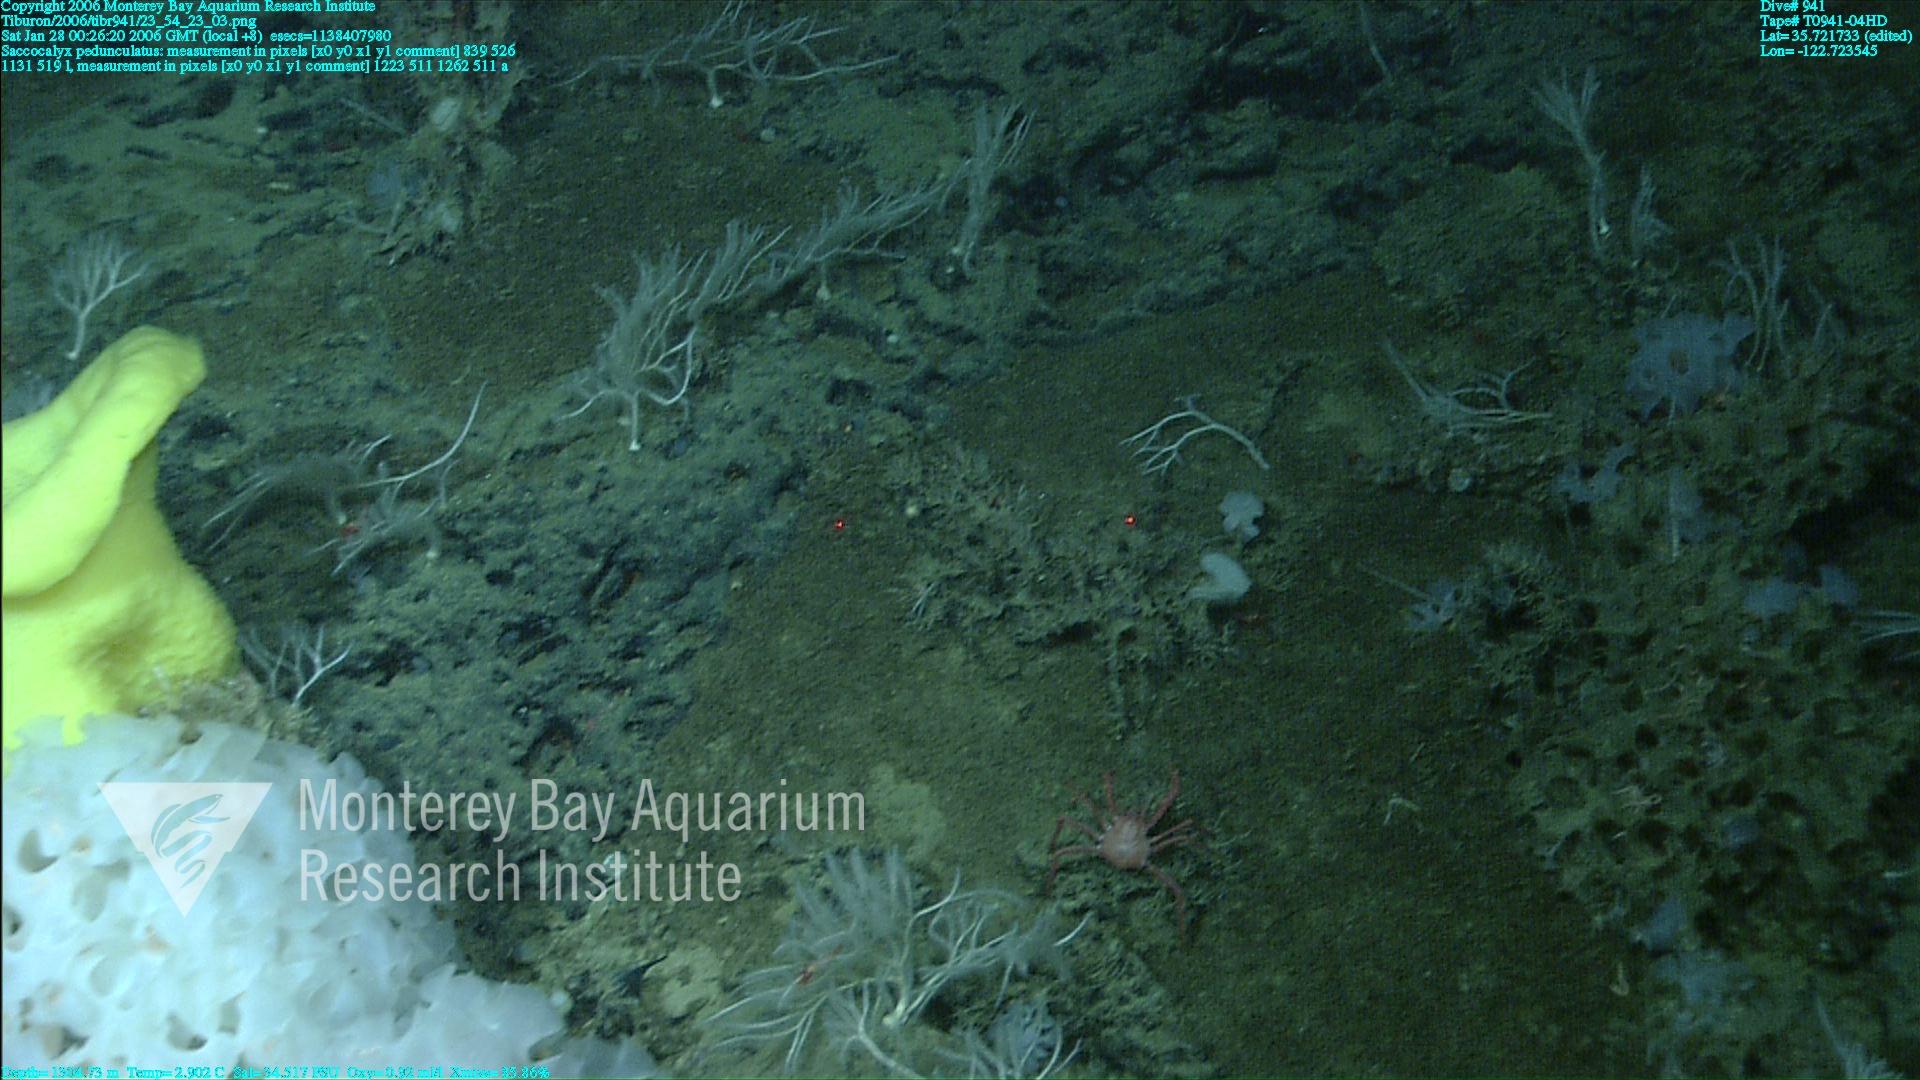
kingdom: Animalia
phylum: Porifera
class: Hexactinellida
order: Lyssacinosida
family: Euplectellidae
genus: Saccocalyx
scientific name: Saccocalyx pedunculatus
